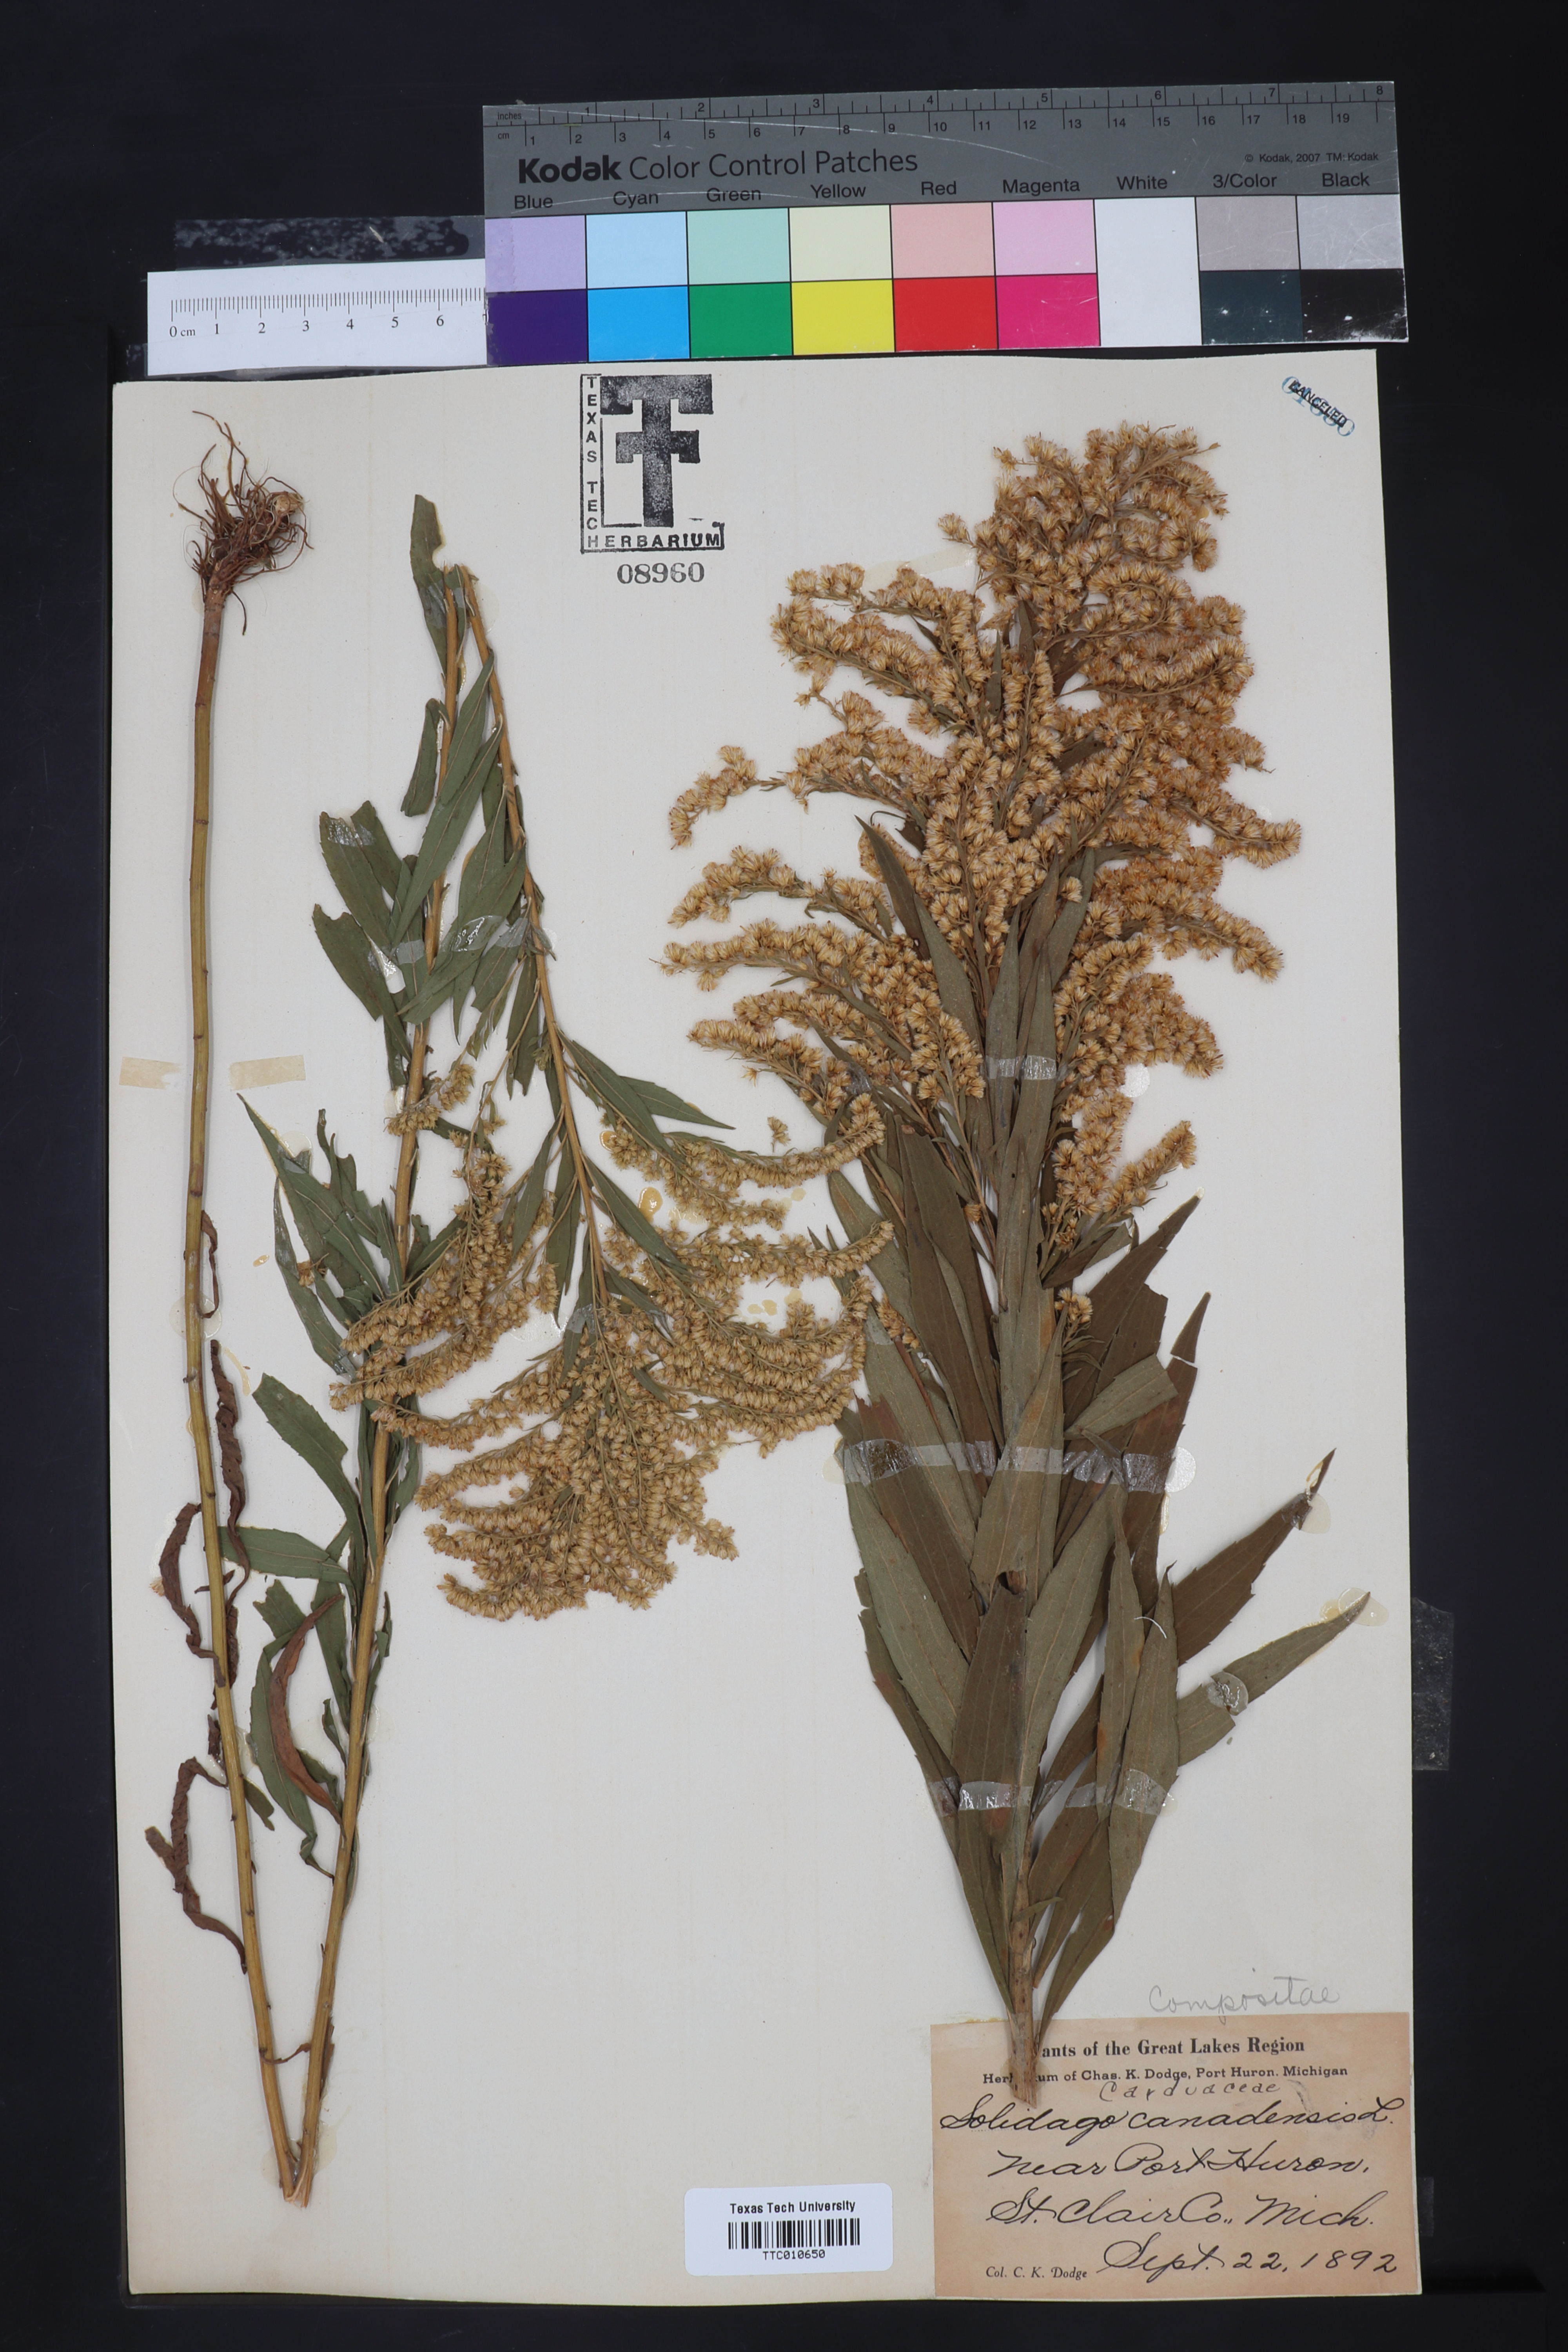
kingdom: Plantae
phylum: Tracheophyta
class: Magnoliopsida
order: Asterales
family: Asteraceae
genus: Solidago
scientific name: Solidago canadensis
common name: Canada goldenrod
